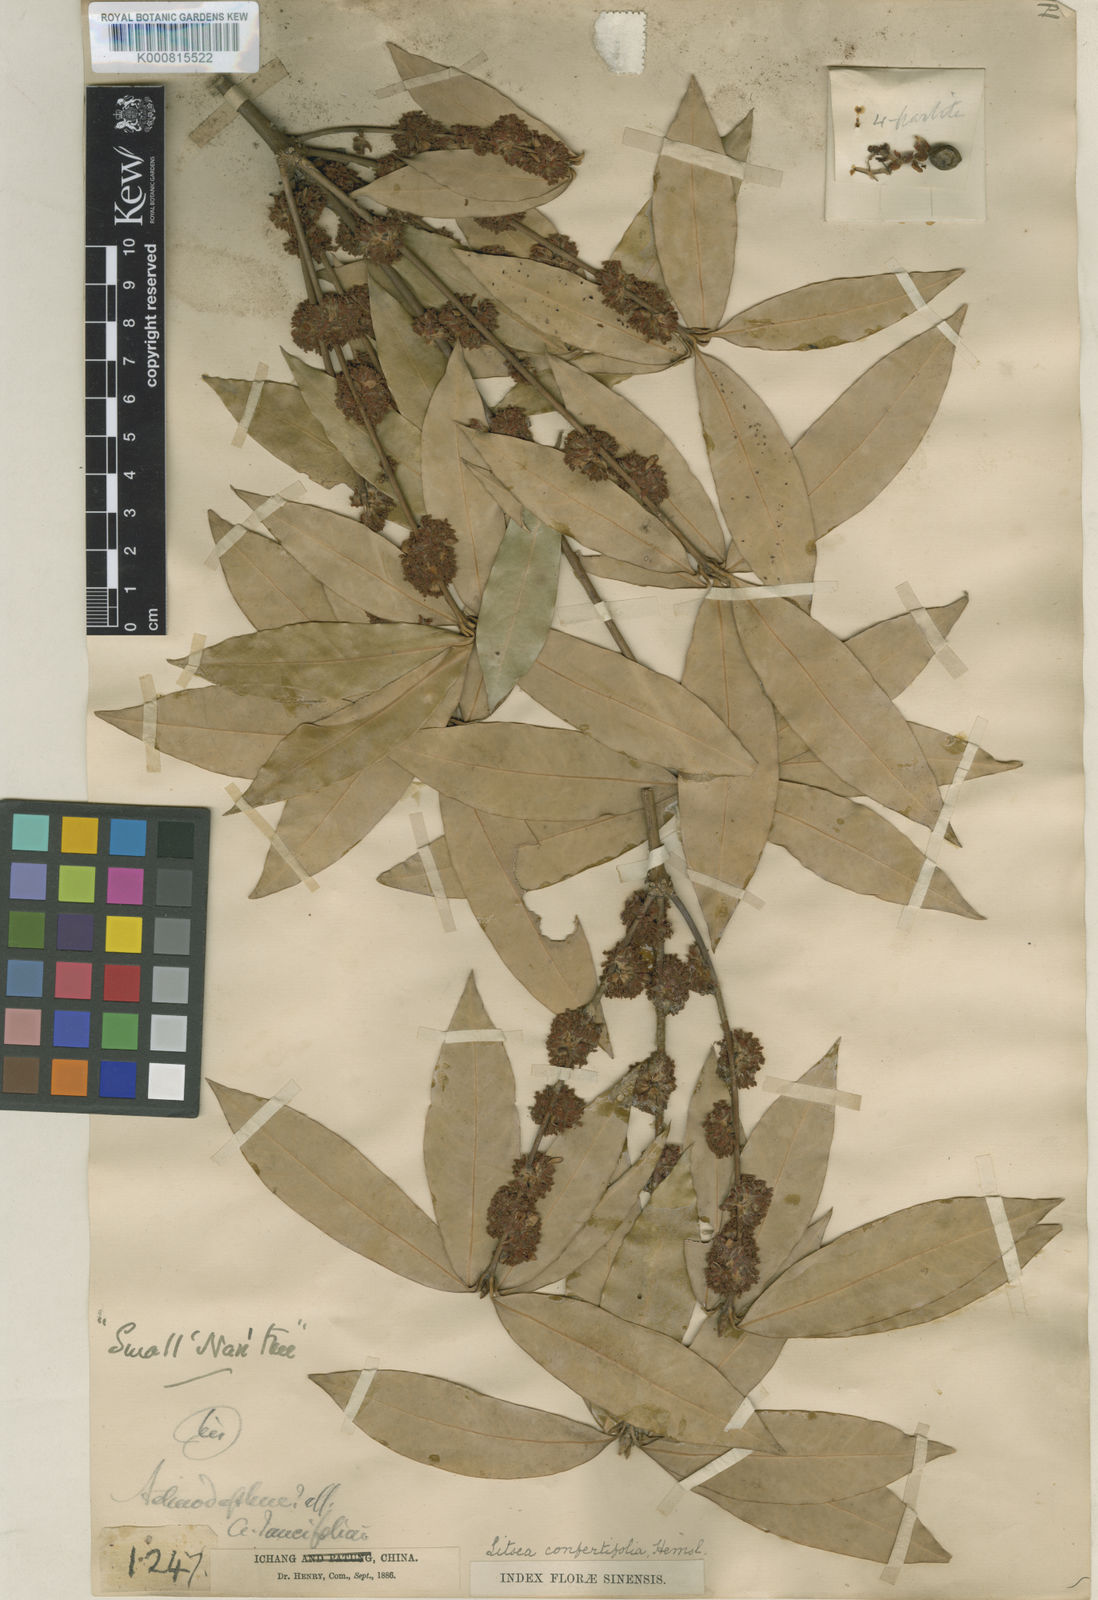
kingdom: Plantae
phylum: Tracheophyta
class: Magnoliopsida
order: Laurales
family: Lauraceae
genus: Neolitsea
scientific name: Neolitsea confertifolia
